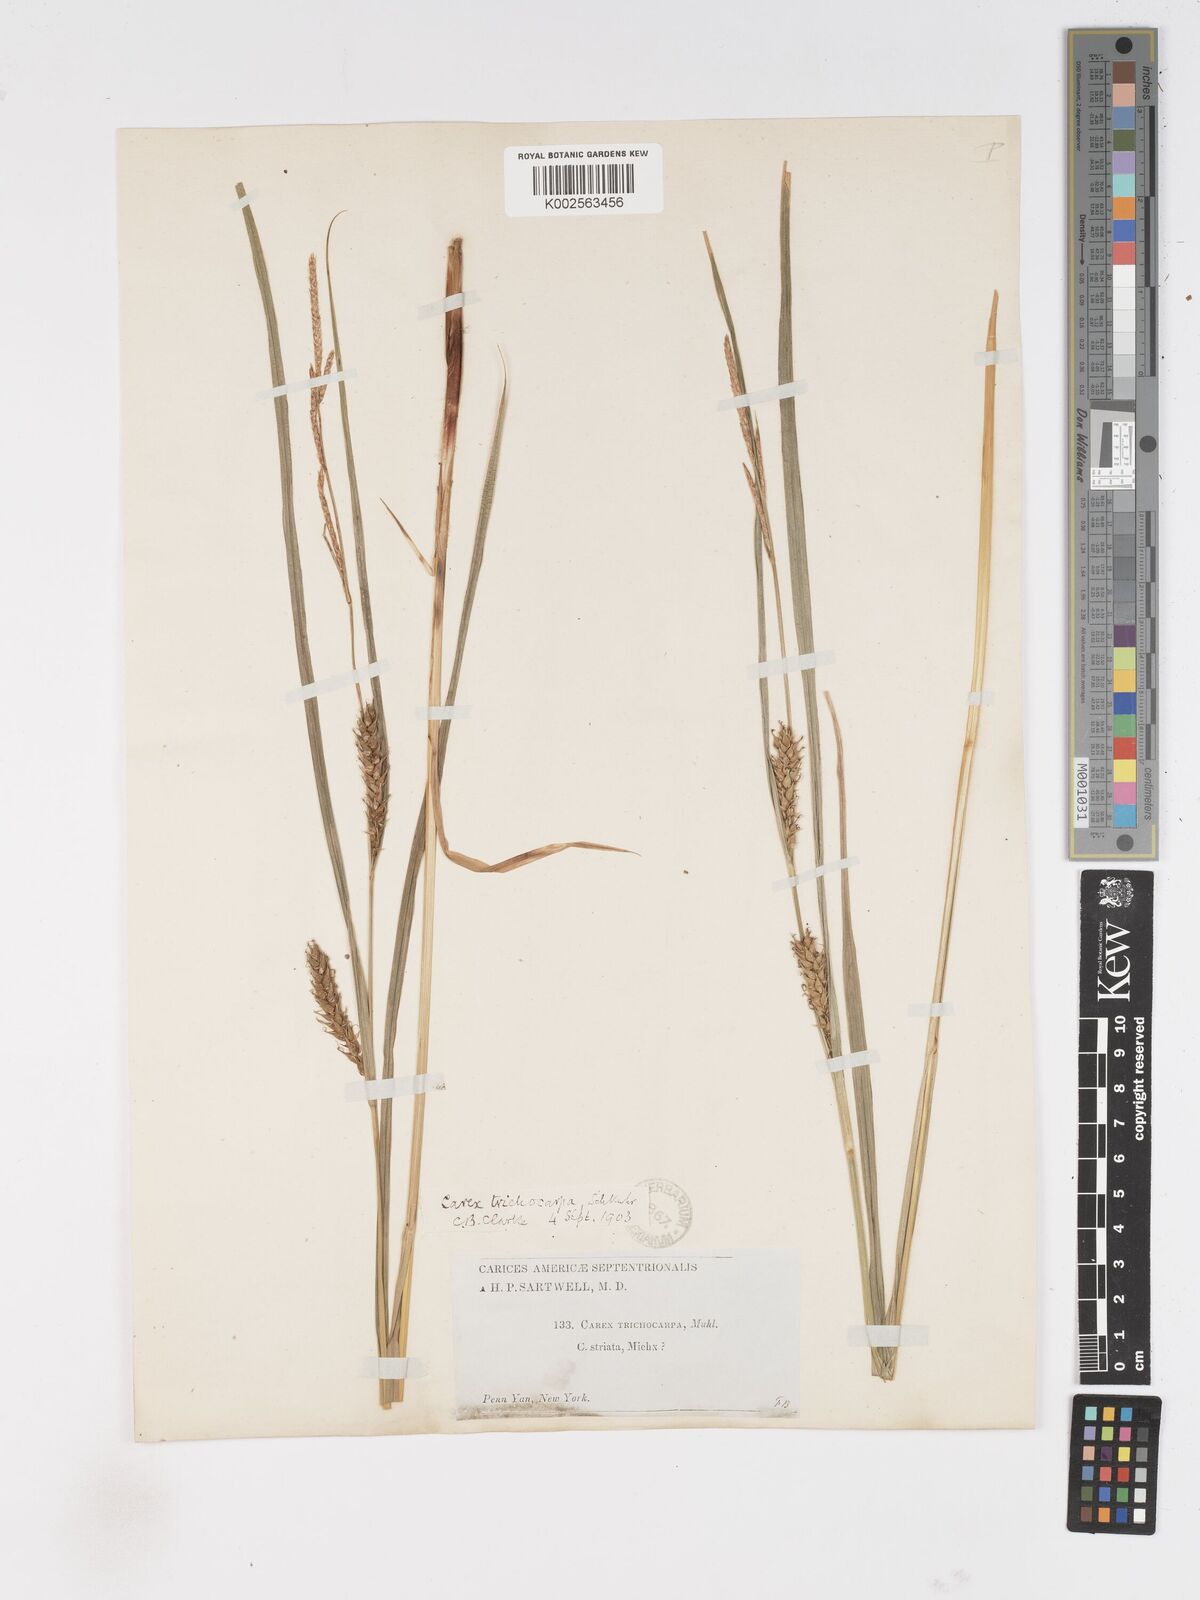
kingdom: Plantae
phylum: Tracheophyta
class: Liliopsida
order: Poales
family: Cyperaceae
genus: Carex
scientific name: Carex trichocarpa
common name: Hairy-fruited lake sedge
